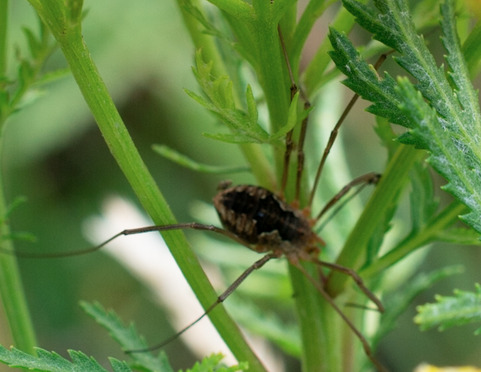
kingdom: Animalia
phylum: Arthropoda
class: Arachnida
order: Opiliones
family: Phalangiidae
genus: Phalangium
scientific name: Phalangium opilio
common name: Hornmejer
